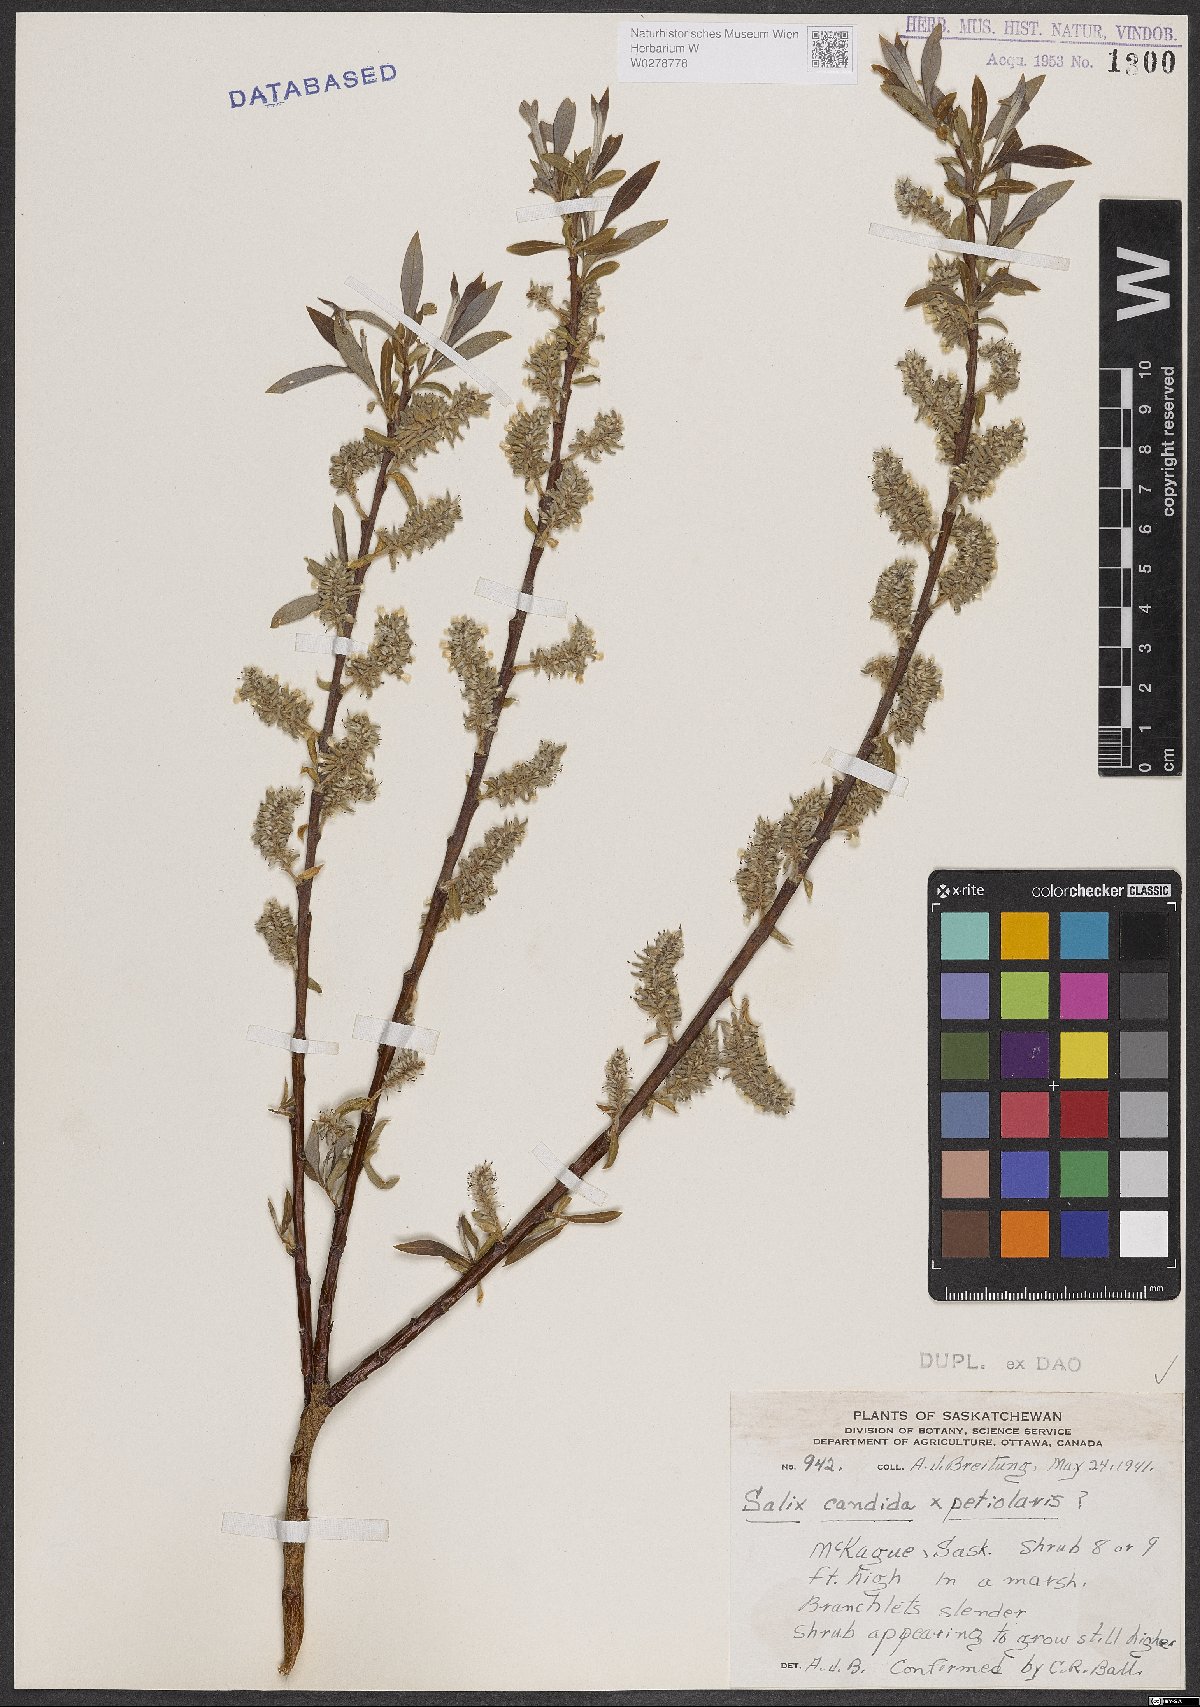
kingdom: Plantae
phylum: Tracheophyta
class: Magnoliopsida
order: Malpighiales
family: Salicaceae
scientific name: Salicaceae
